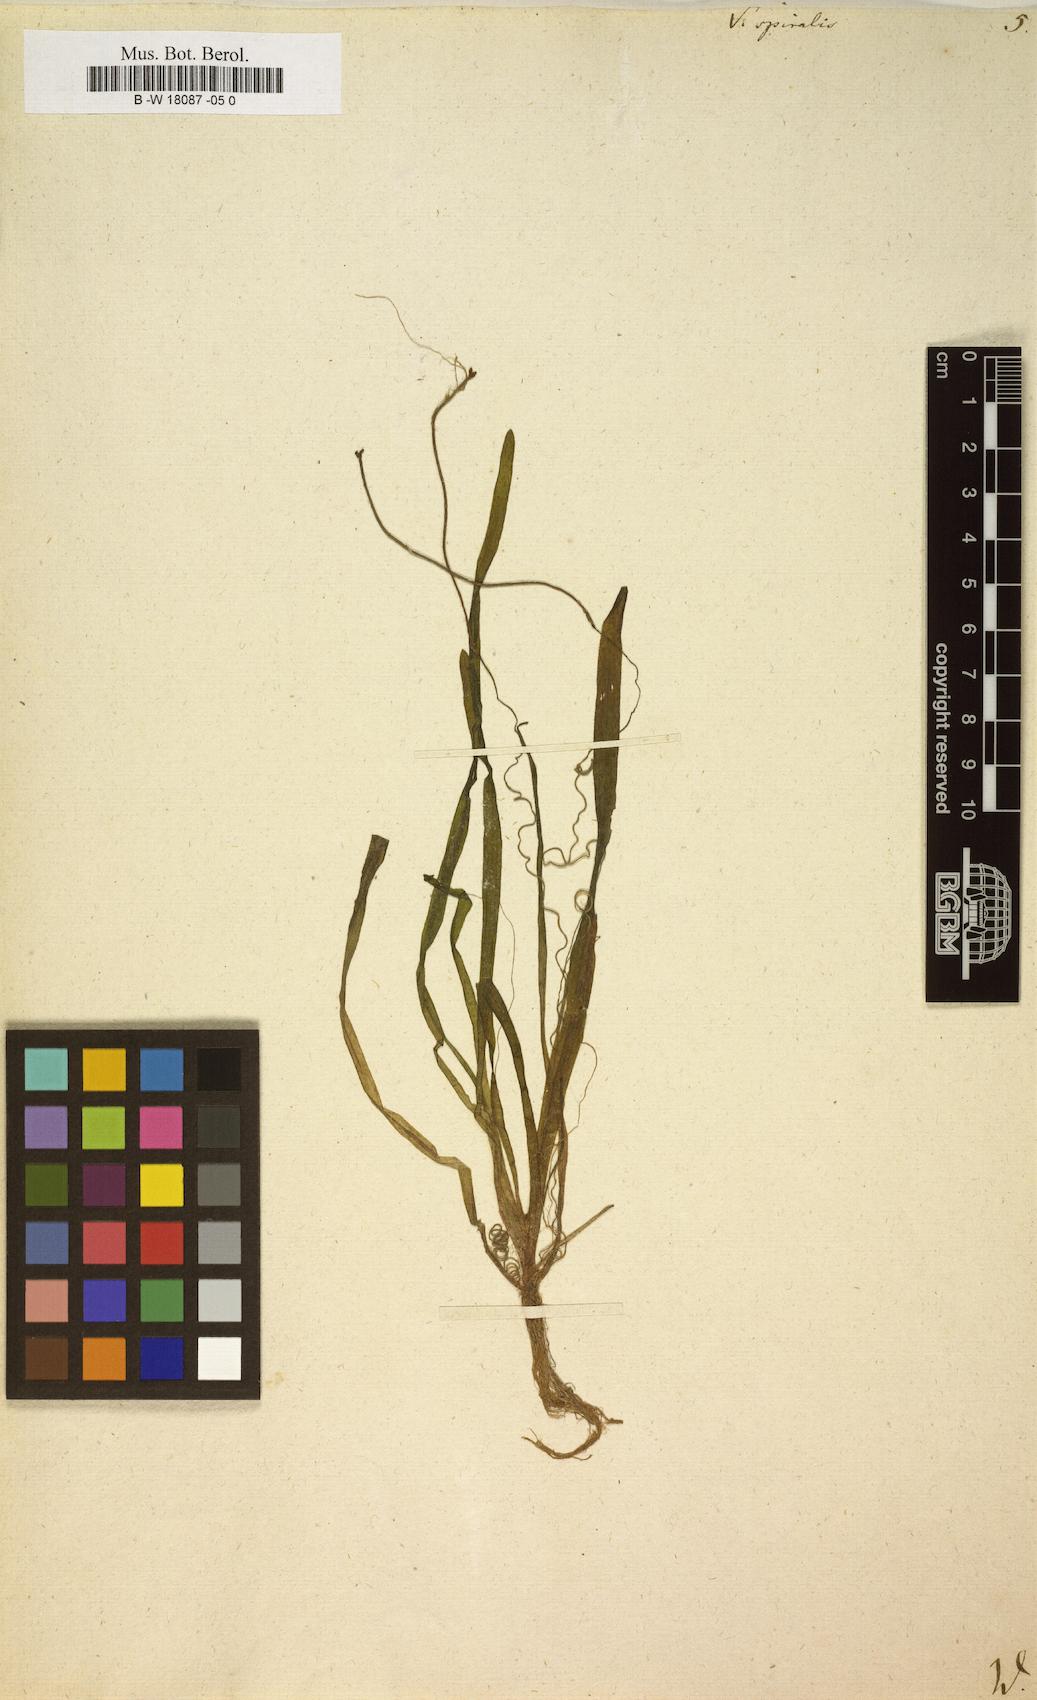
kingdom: Plantae
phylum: Tracheophyta
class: Liliopsida
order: Alismatales
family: Hydrocharitaceae
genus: Vallisneria
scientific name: Vallisneria spiralis
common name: Tapegrass
